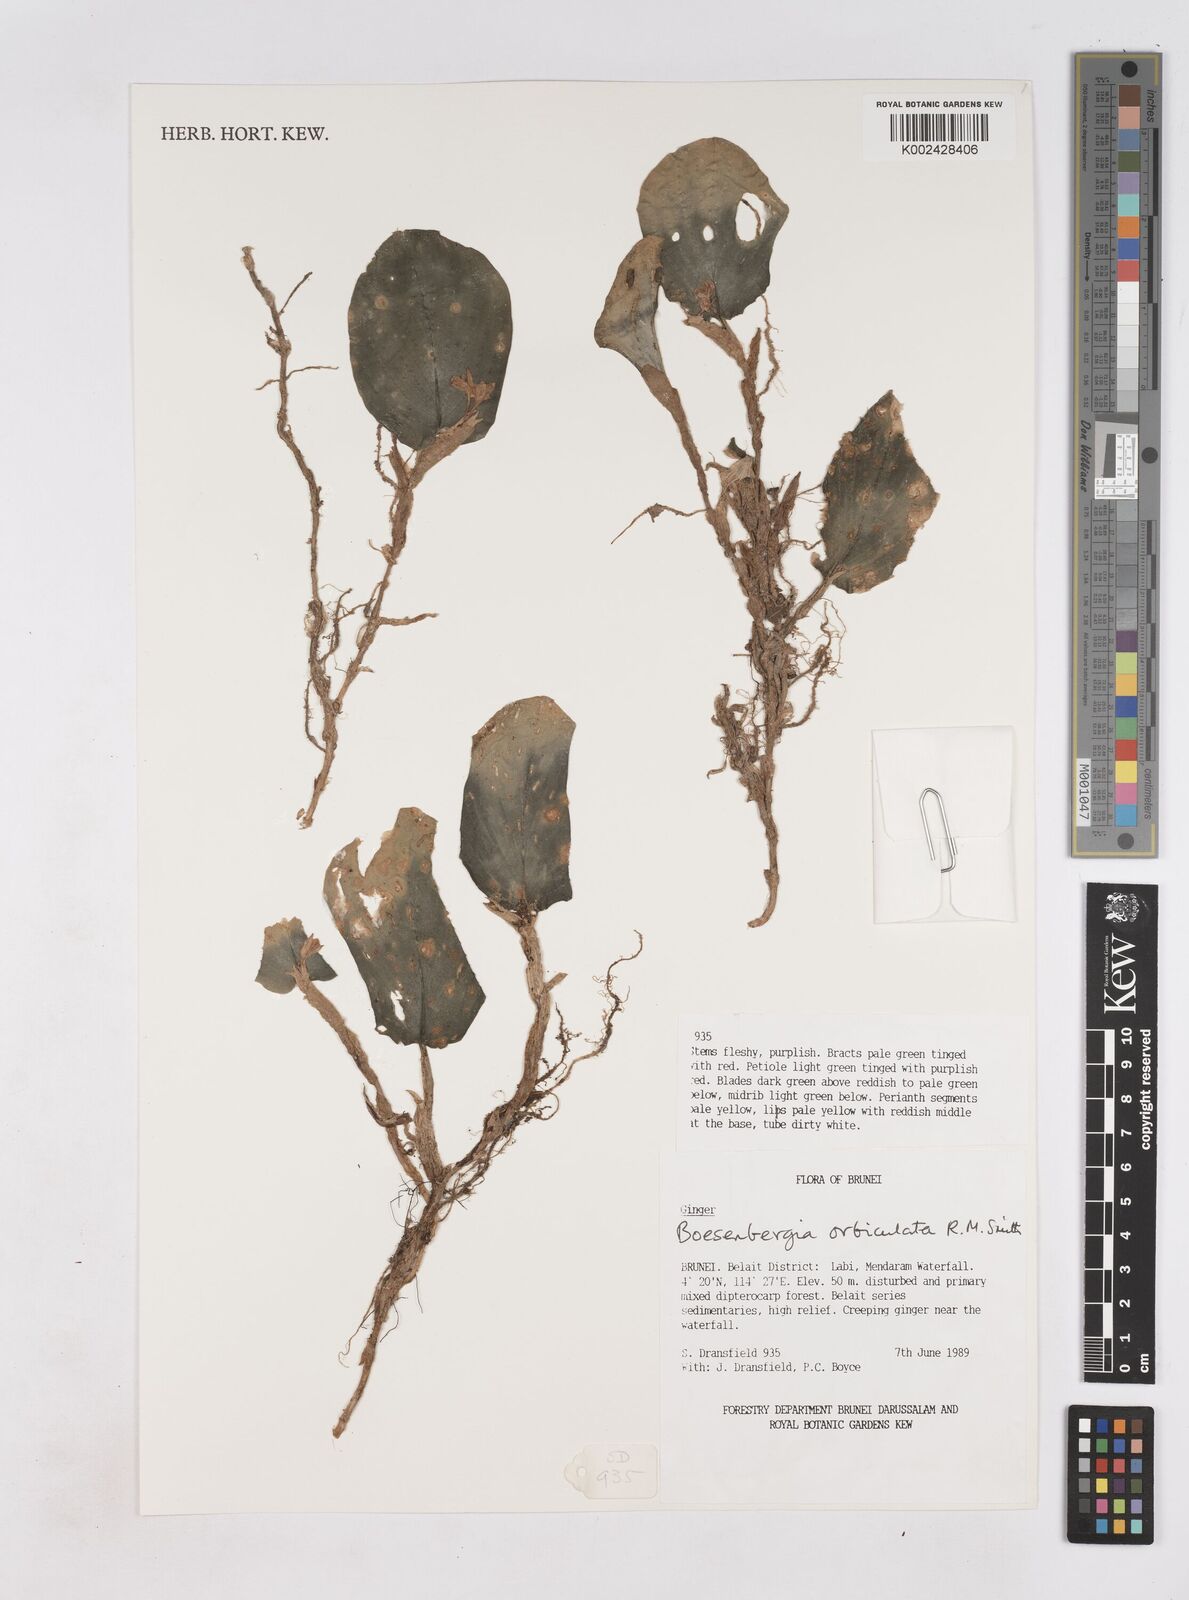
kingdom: Plantae
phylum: Tracheophyta
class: Liliopsida
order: Zingiberales
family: Zingiberaceae
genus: Boesenbergia
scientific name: Boesenbergia orbiculata
